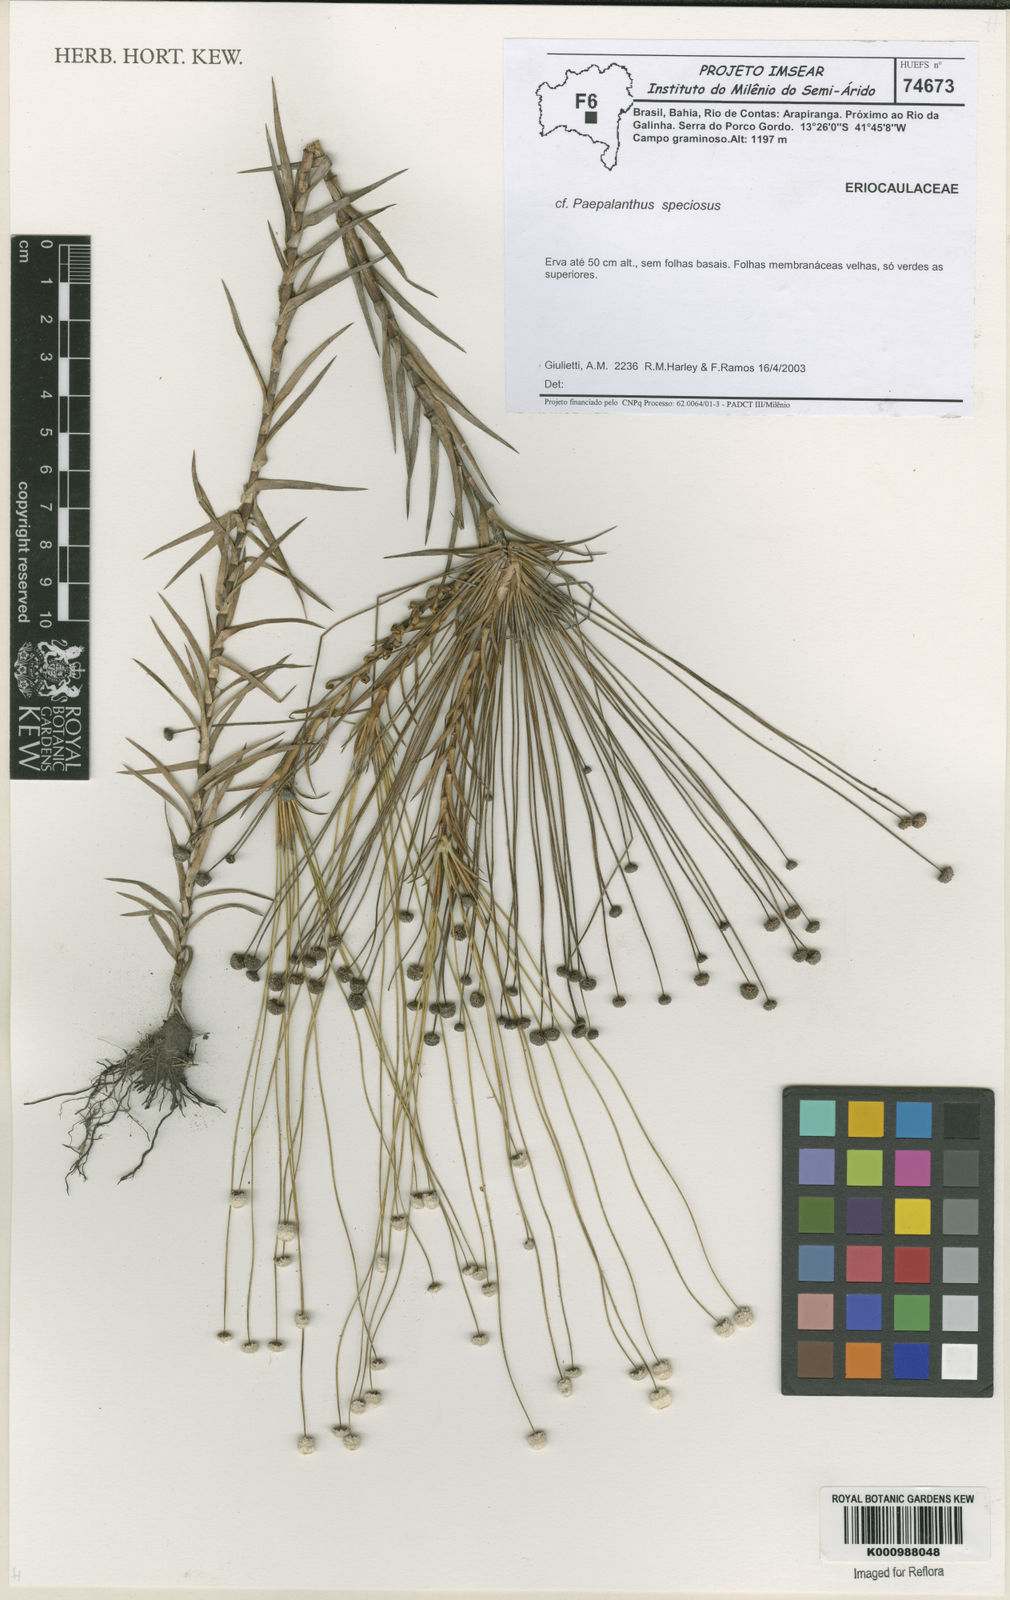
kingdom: Plantae
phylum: Tracheophyta
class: Liliopsida
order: Poales
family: Eriocaulaceae
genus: Paepalanthus
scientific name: Paepalanthus
